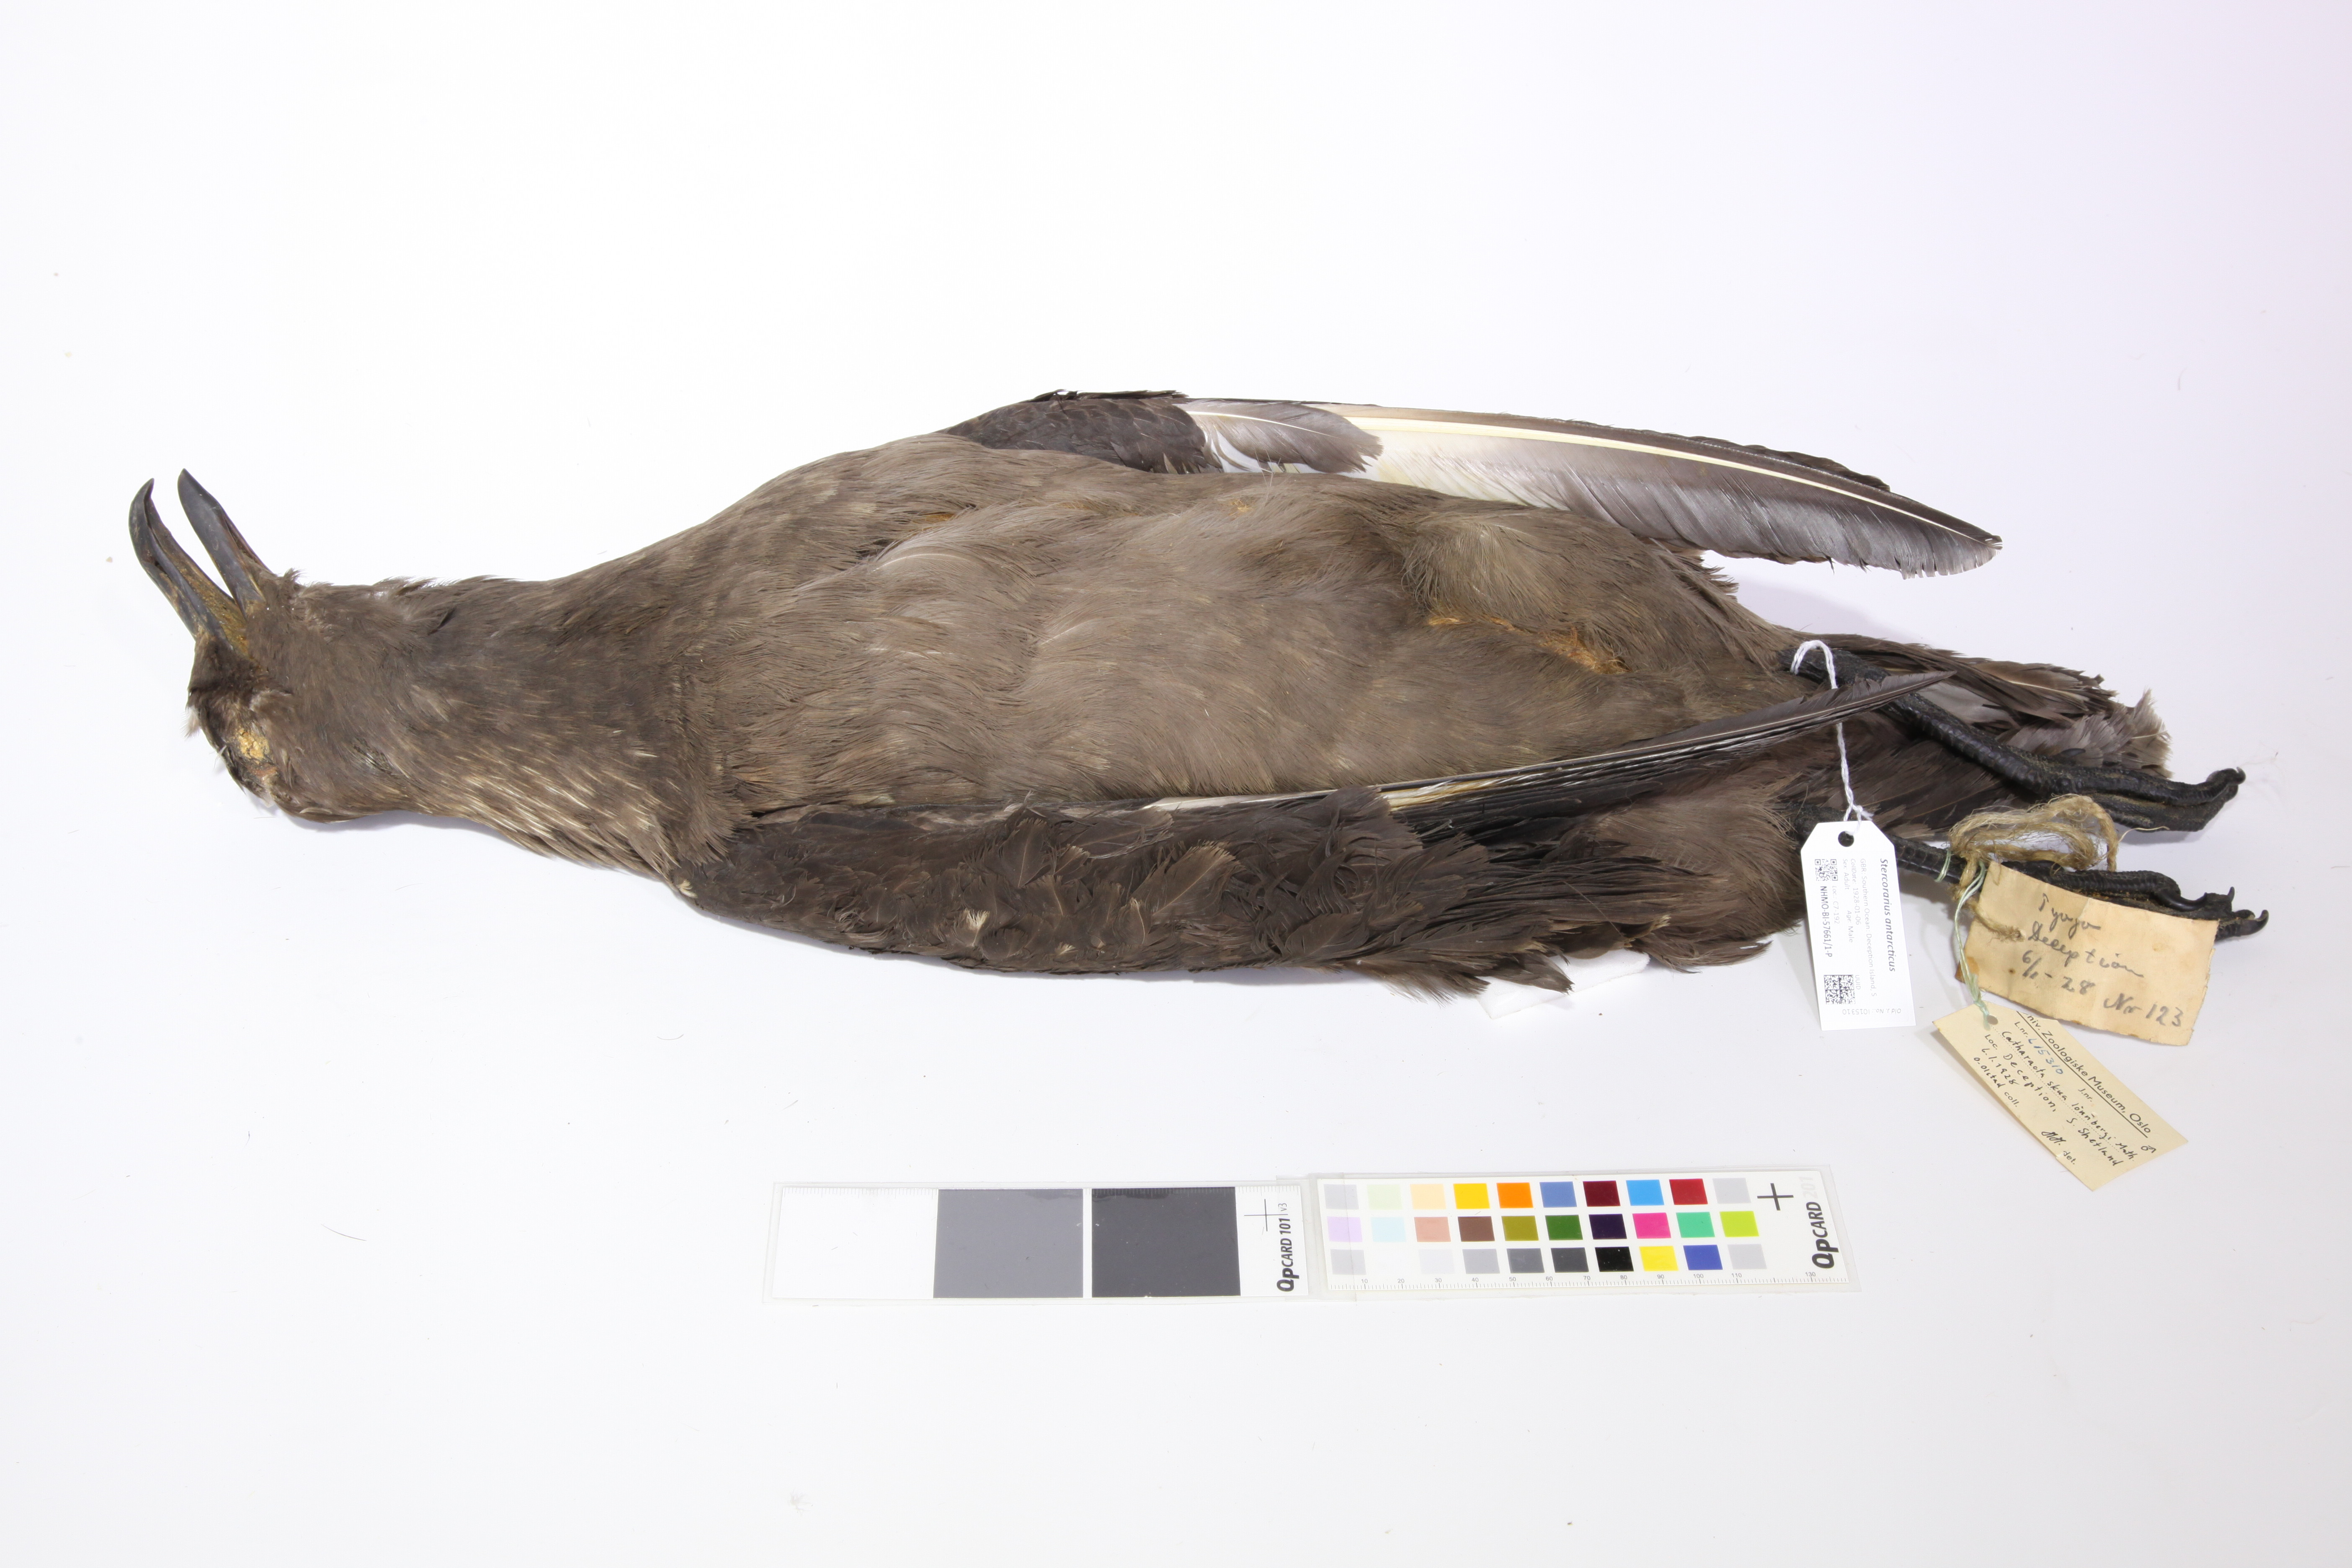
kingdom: Animalia
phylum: Chordata
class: Aves
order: Charadriiformes
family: Stercorariidae
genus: Stercorarius
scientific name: Stercorarius antarcticus
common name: Brown skua
